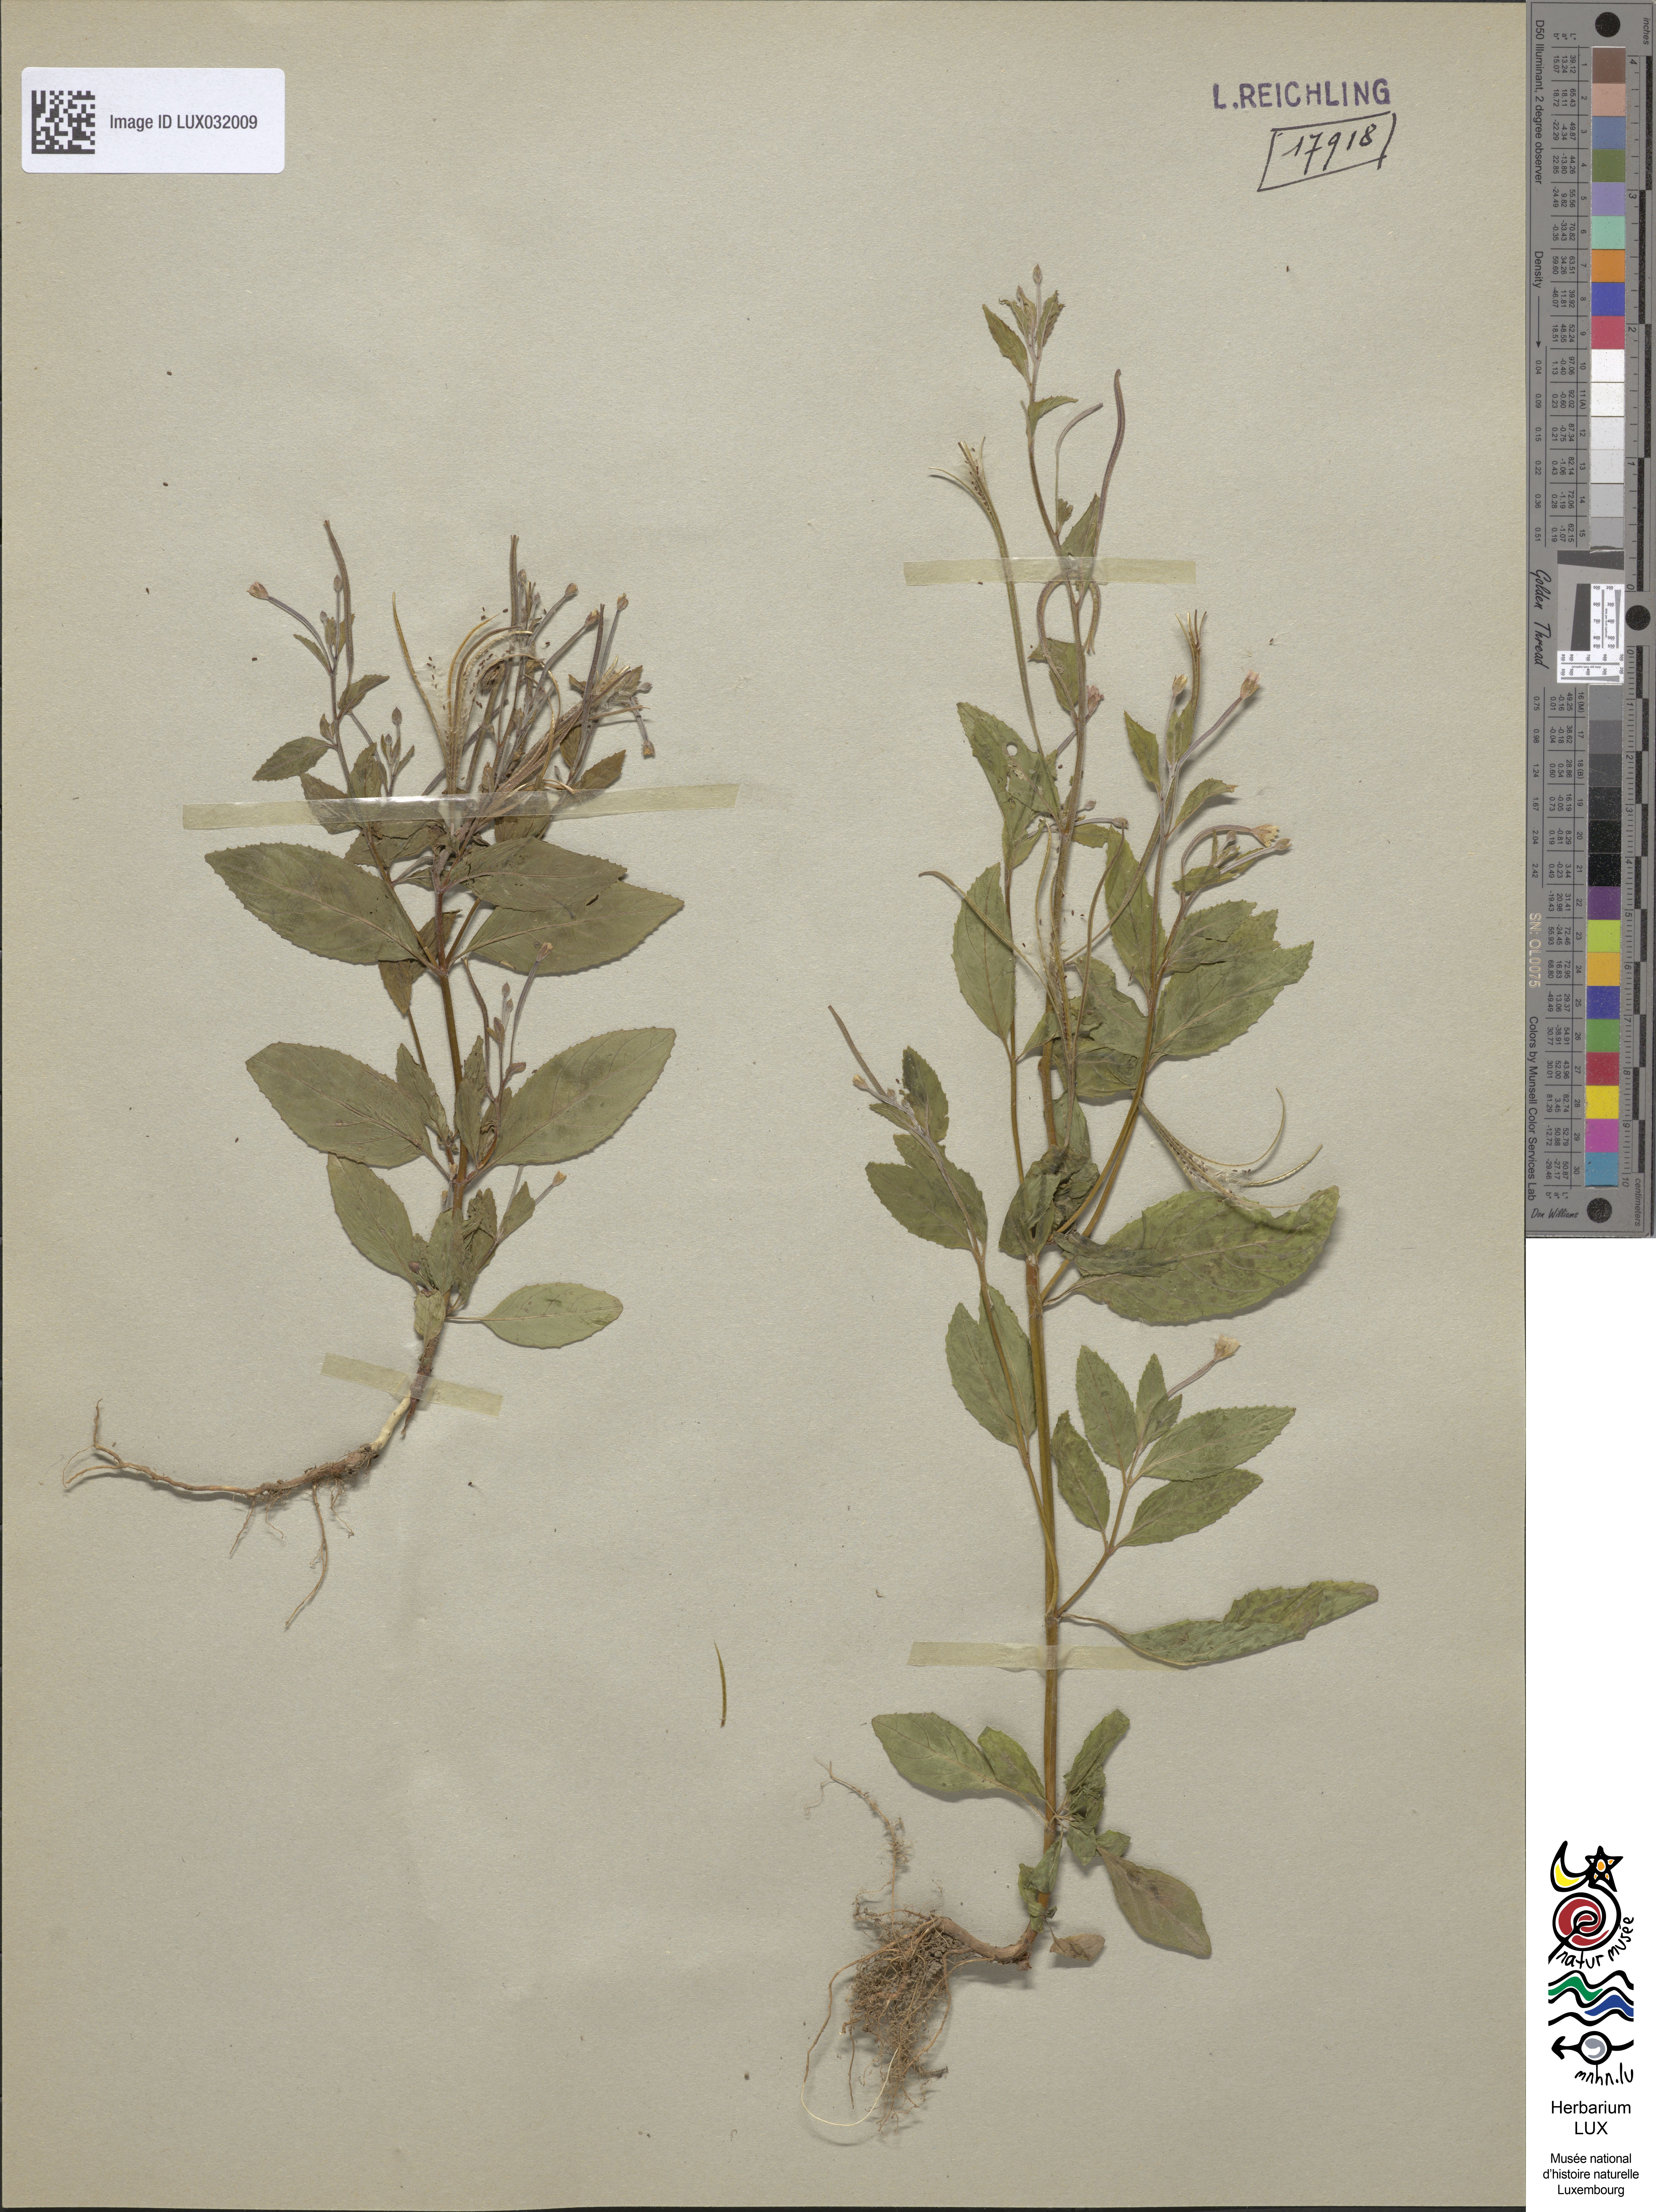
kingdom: Plantae
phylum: Tracheophyta
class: Magnoliopsida
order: Myrtales
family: Onagraceae
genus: Epilobium
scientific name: Epilobium roseum
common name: Pale willowherb
